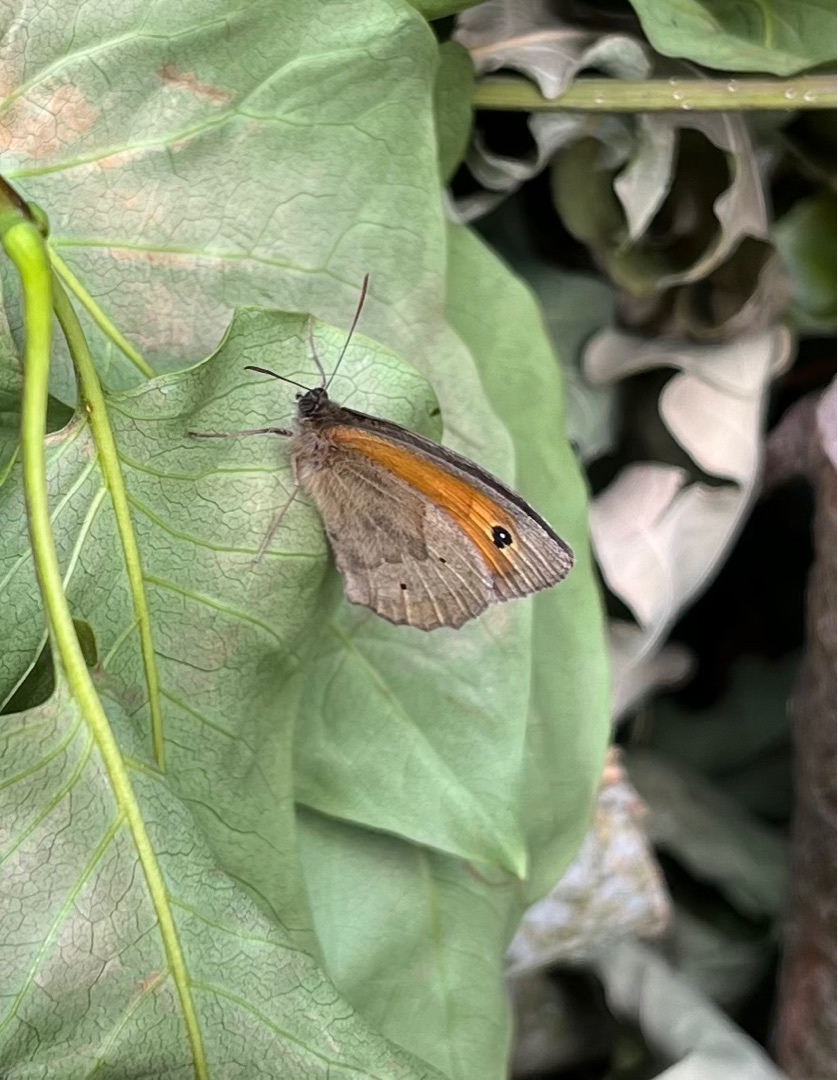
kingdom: Animalia
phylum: Arthropoda
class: Insecta
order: Lepidoptera
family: Nymphalidae
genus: Maniola
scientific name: Maniola jurtina
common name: Græsrandøje
